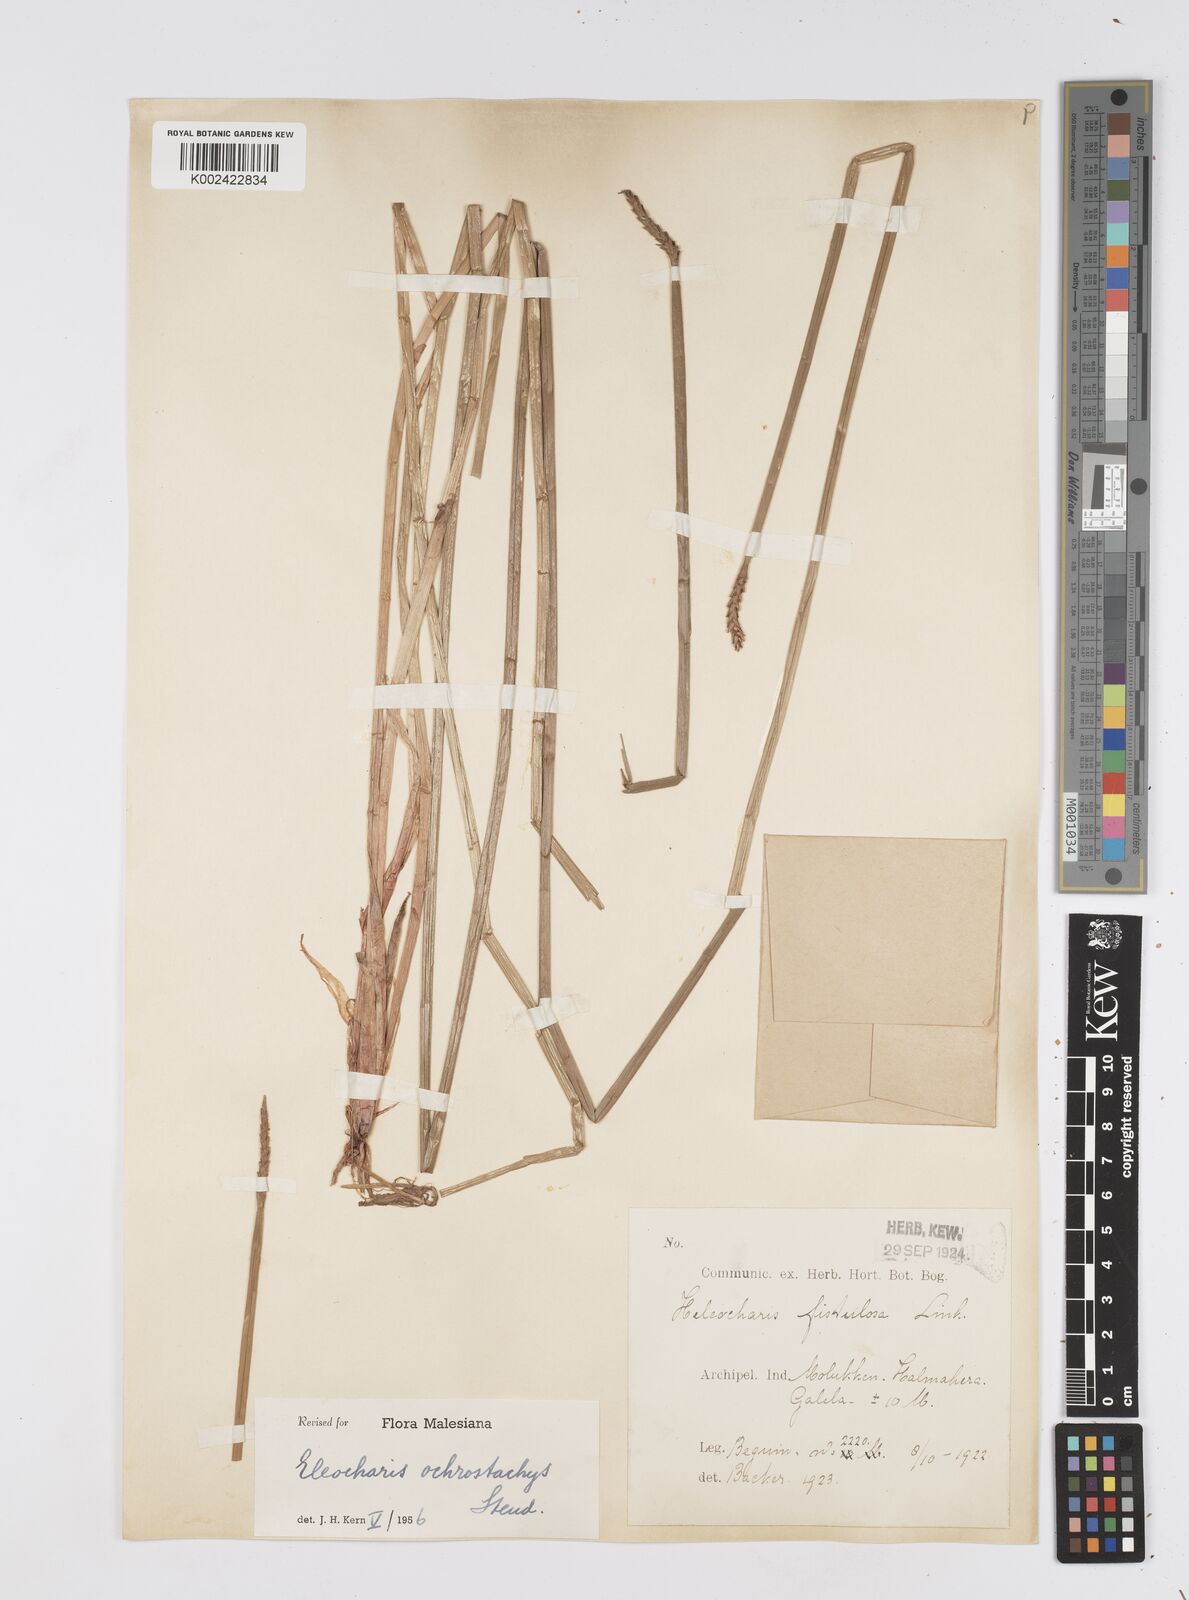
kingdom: Plantae
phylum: Tracheophyta
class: Liliopsida
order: Poales
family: Cyperaceae
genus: Eleocharis
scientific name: Eleocharis ochrostachys
